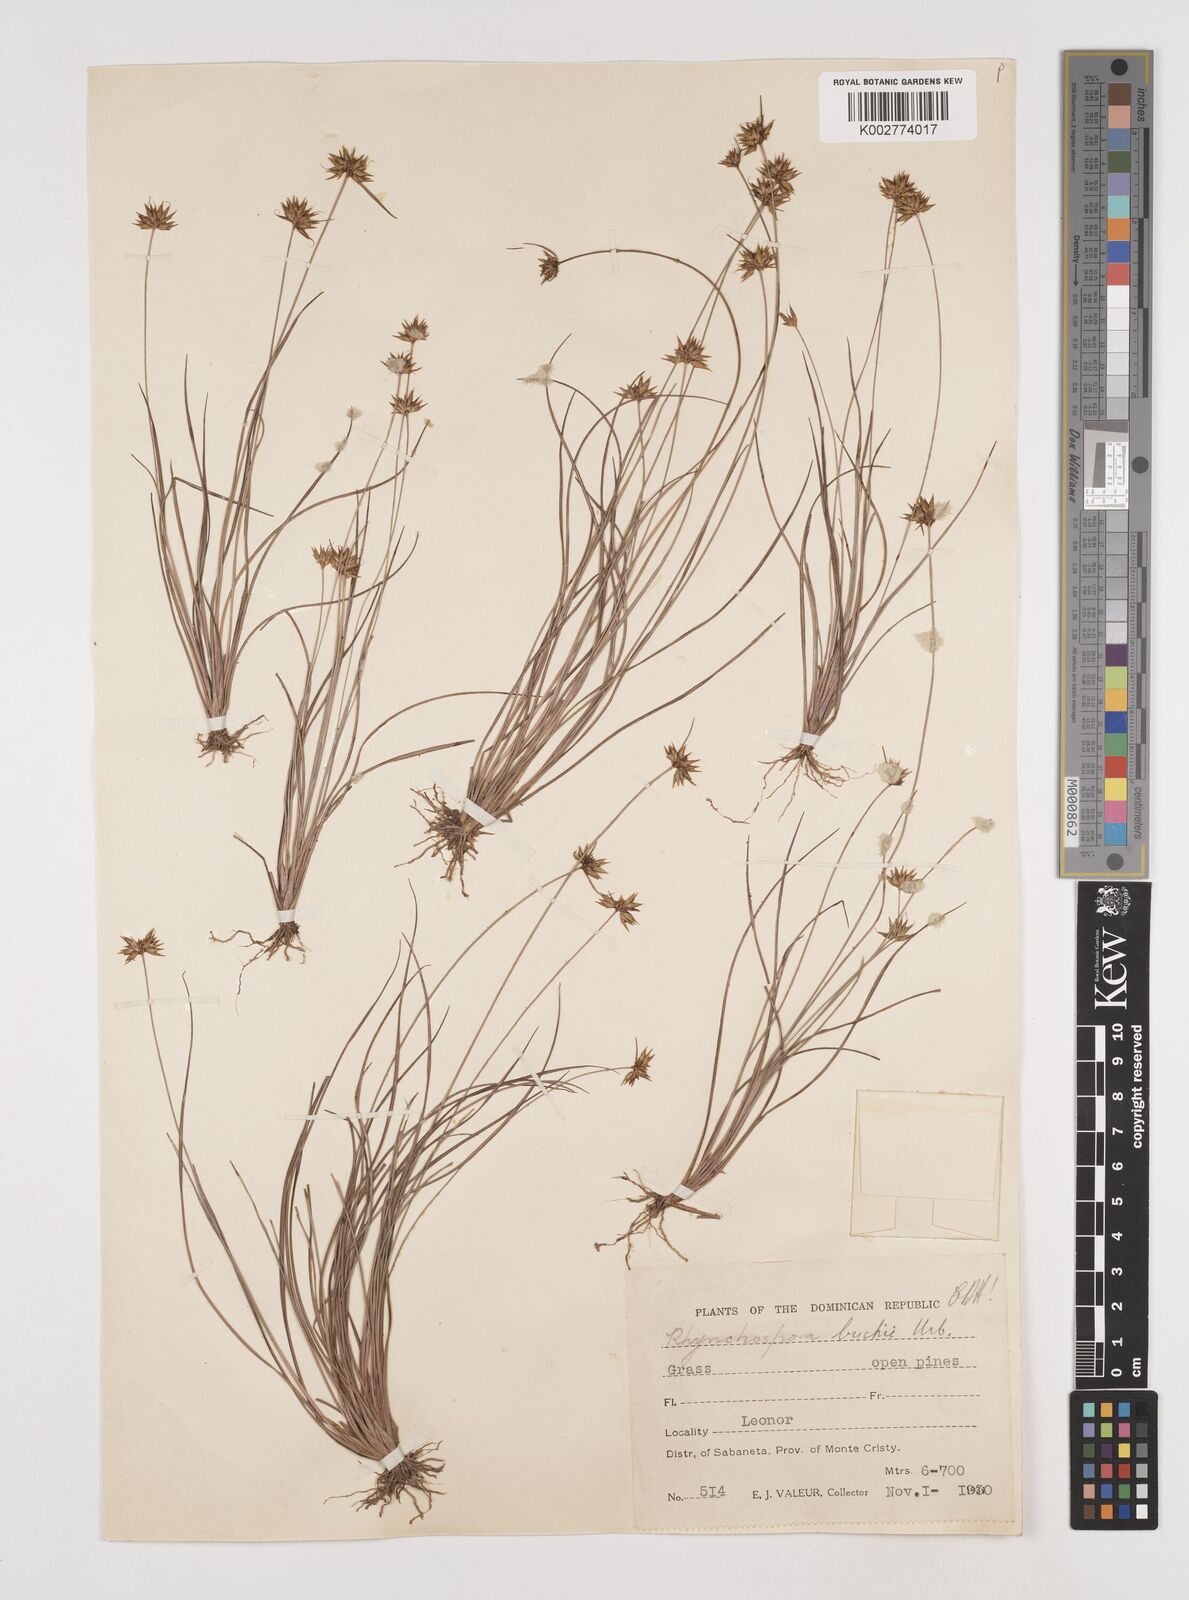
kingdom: Plantae
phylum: Tracheophyta
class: Liliopsida
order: Poales
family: Cyperaceae
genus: Rhynchospora
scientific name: Rhynchospora mexicana
